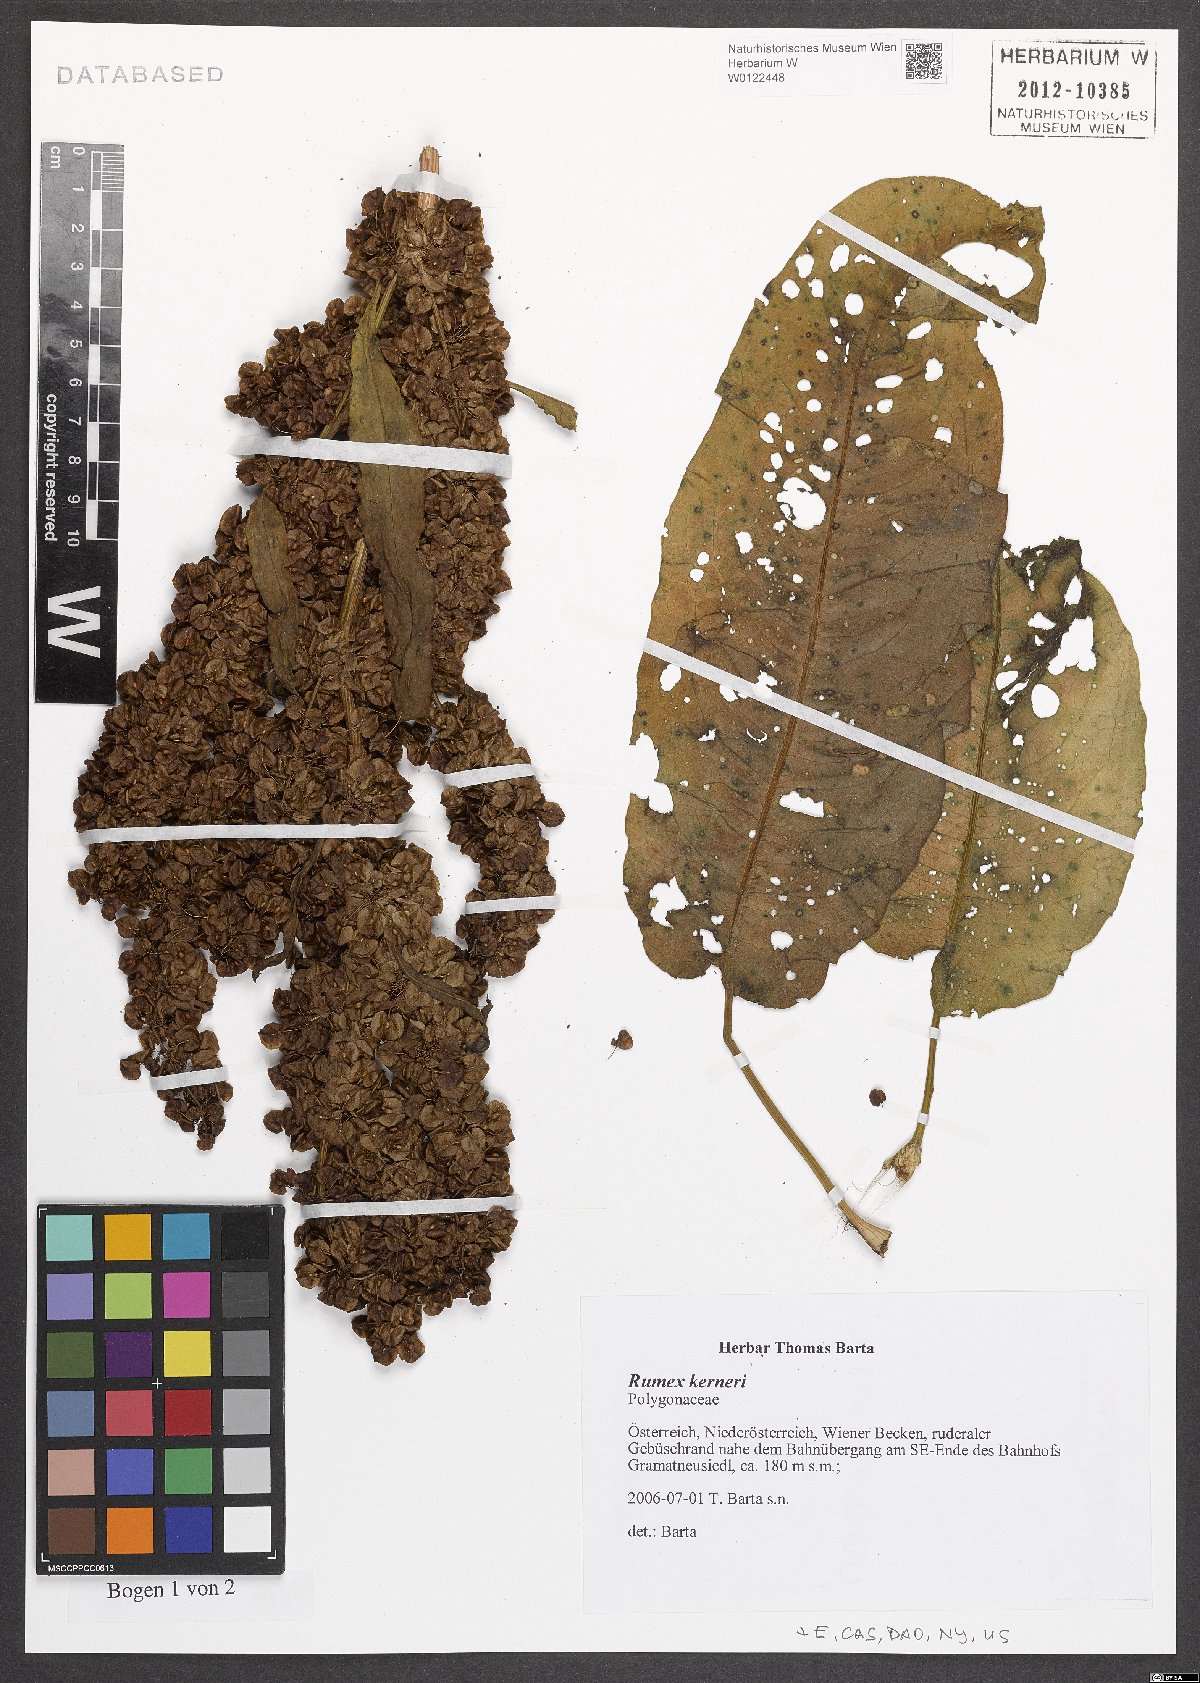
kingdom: Plantae
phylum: Tracheophyta
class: Magnoliopsida
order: Caryophyllales
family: Polygonaceae
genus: Rumex
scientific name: Rumex kerneri
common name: Kerner's dock
